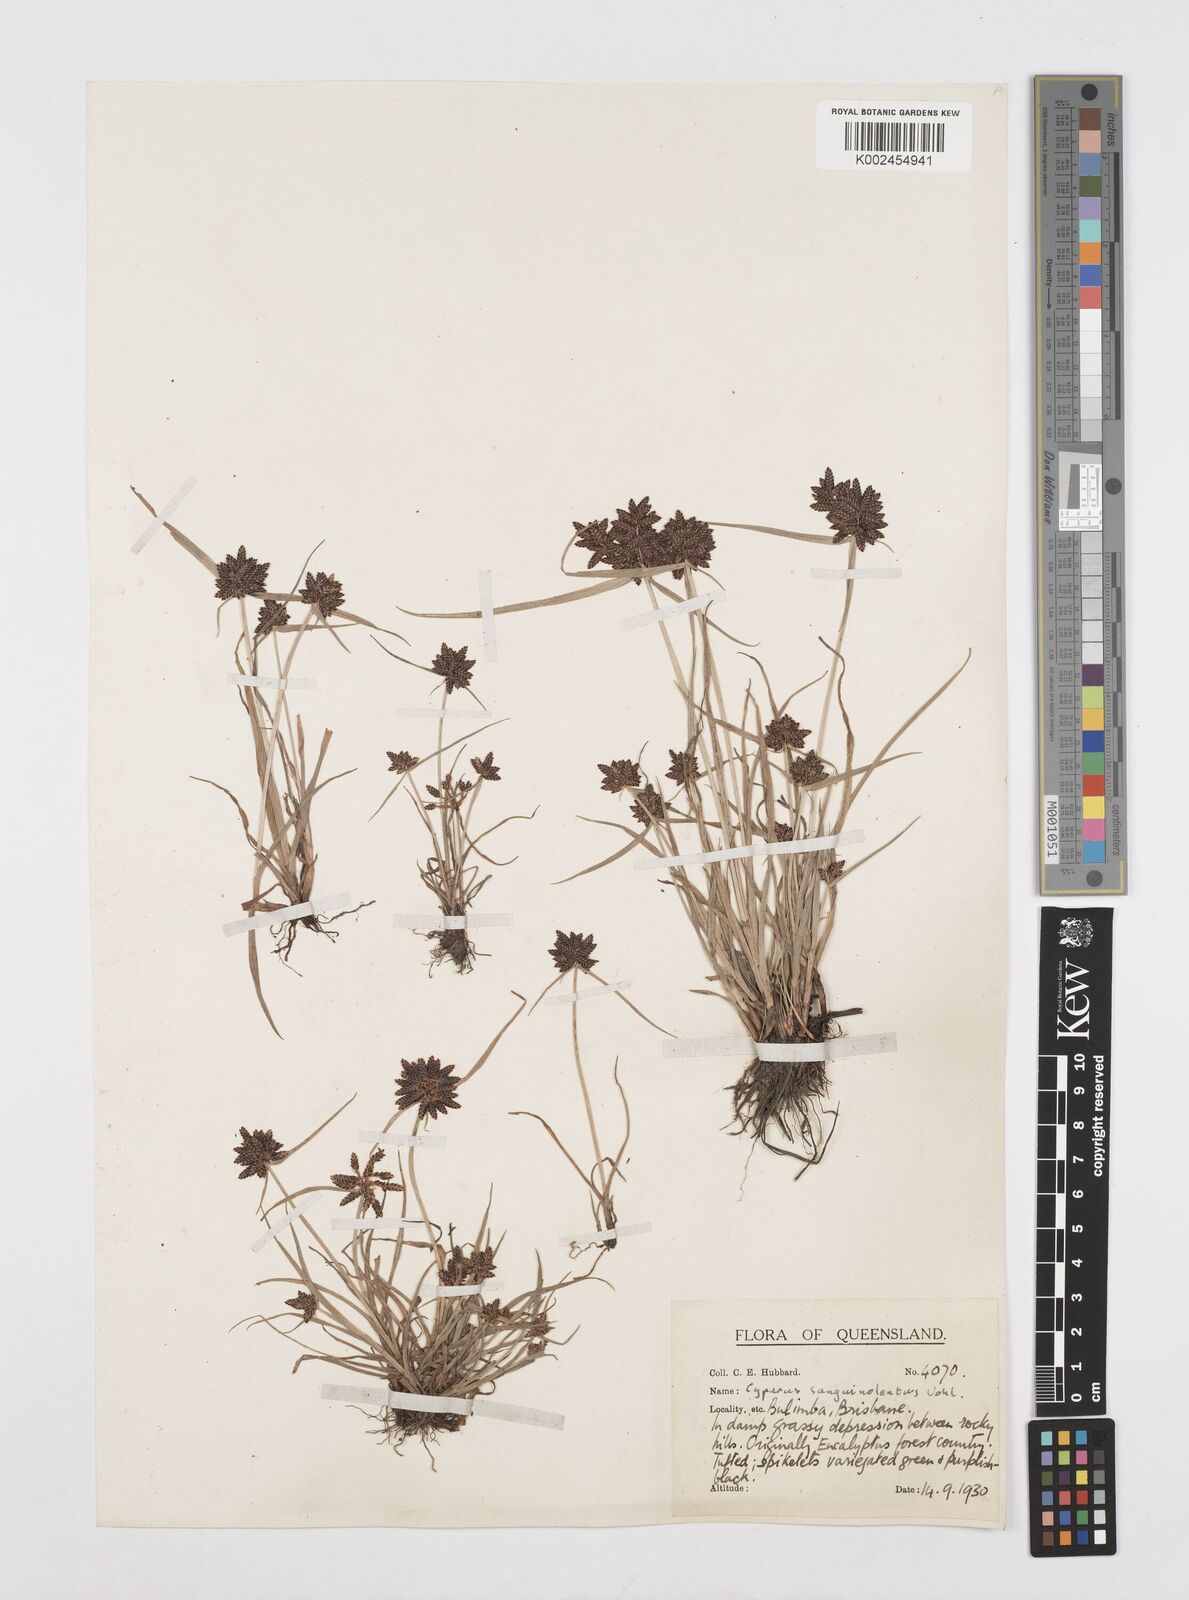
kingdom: Plantae
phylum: Tracheophyta
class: Liliopsida
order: Poales
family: Cyperaceae
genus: Cyperus
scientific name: Cyperus sanguinolentus
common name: Purpleglume flatsedge
